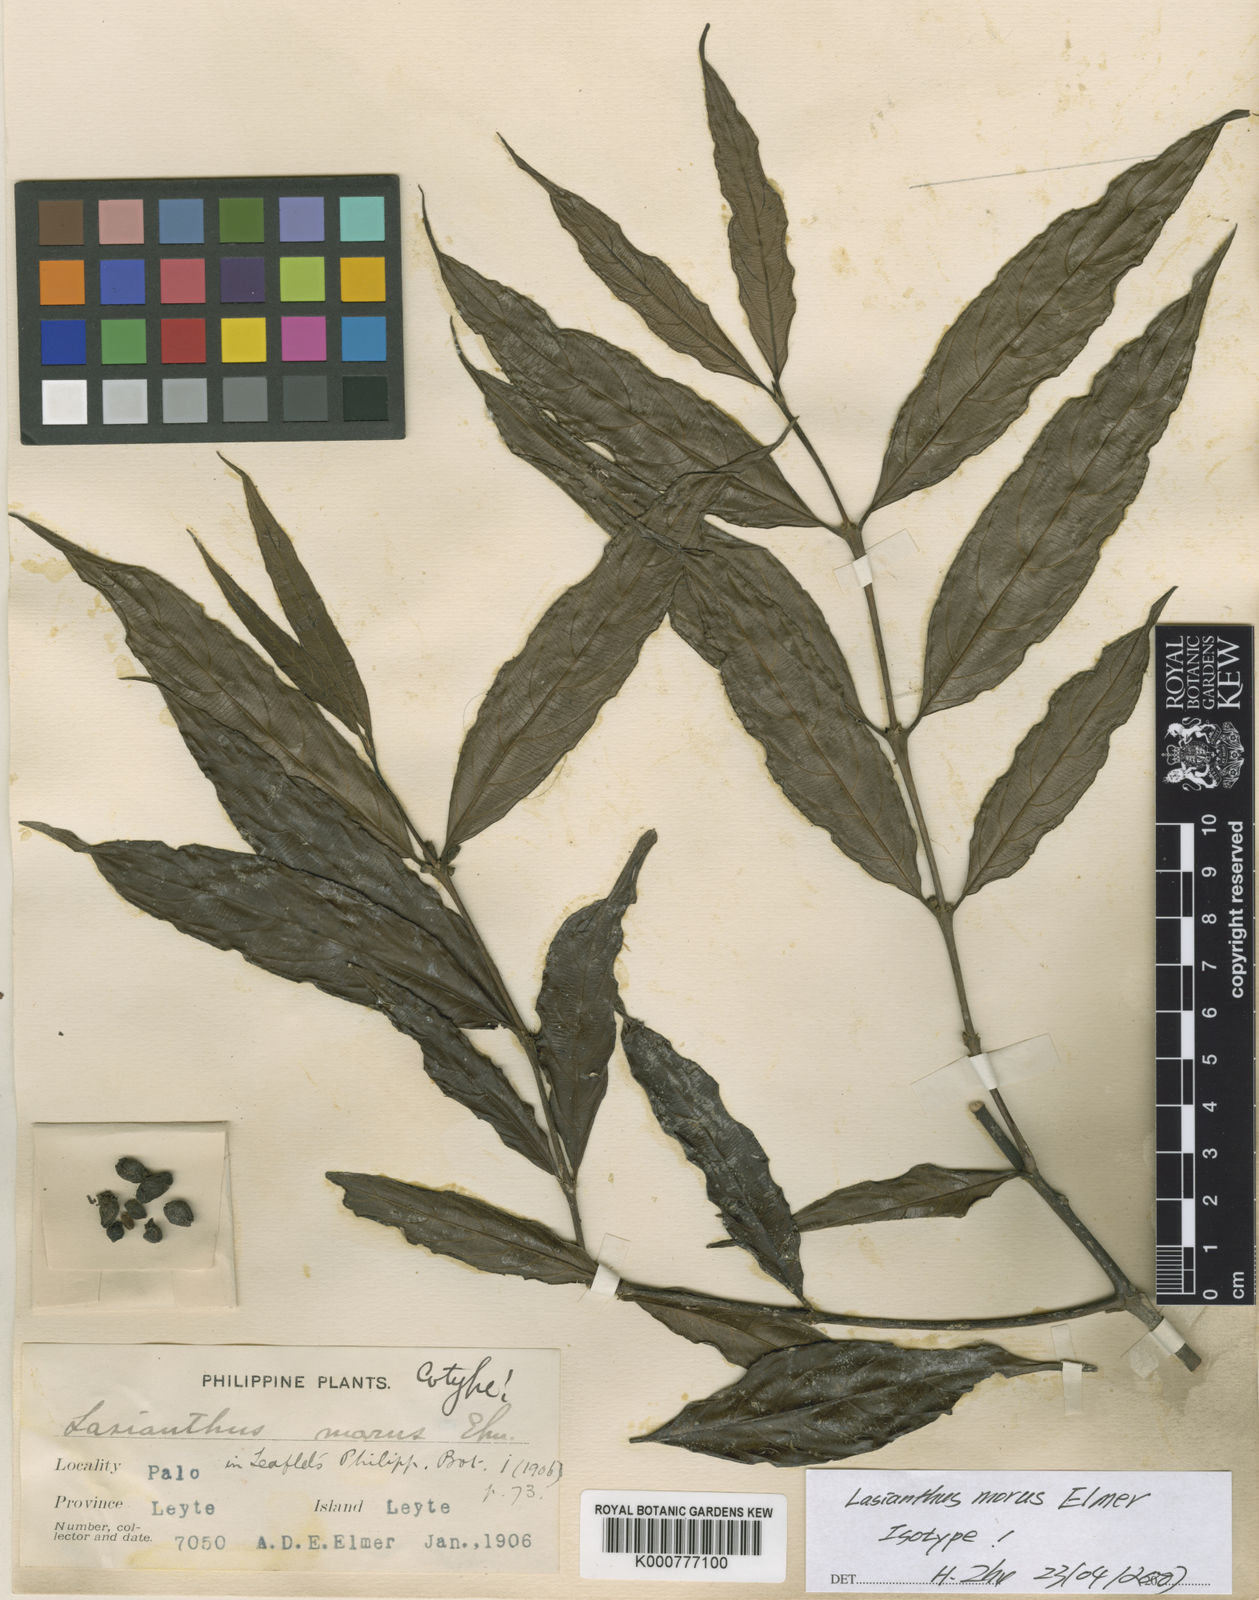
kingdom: Plantae
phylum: Tracheophyta
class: Magnoliopsida
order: Gentianales
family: Rubiaceae
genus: Lasianthus
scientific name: Lasianthus verticillatus
